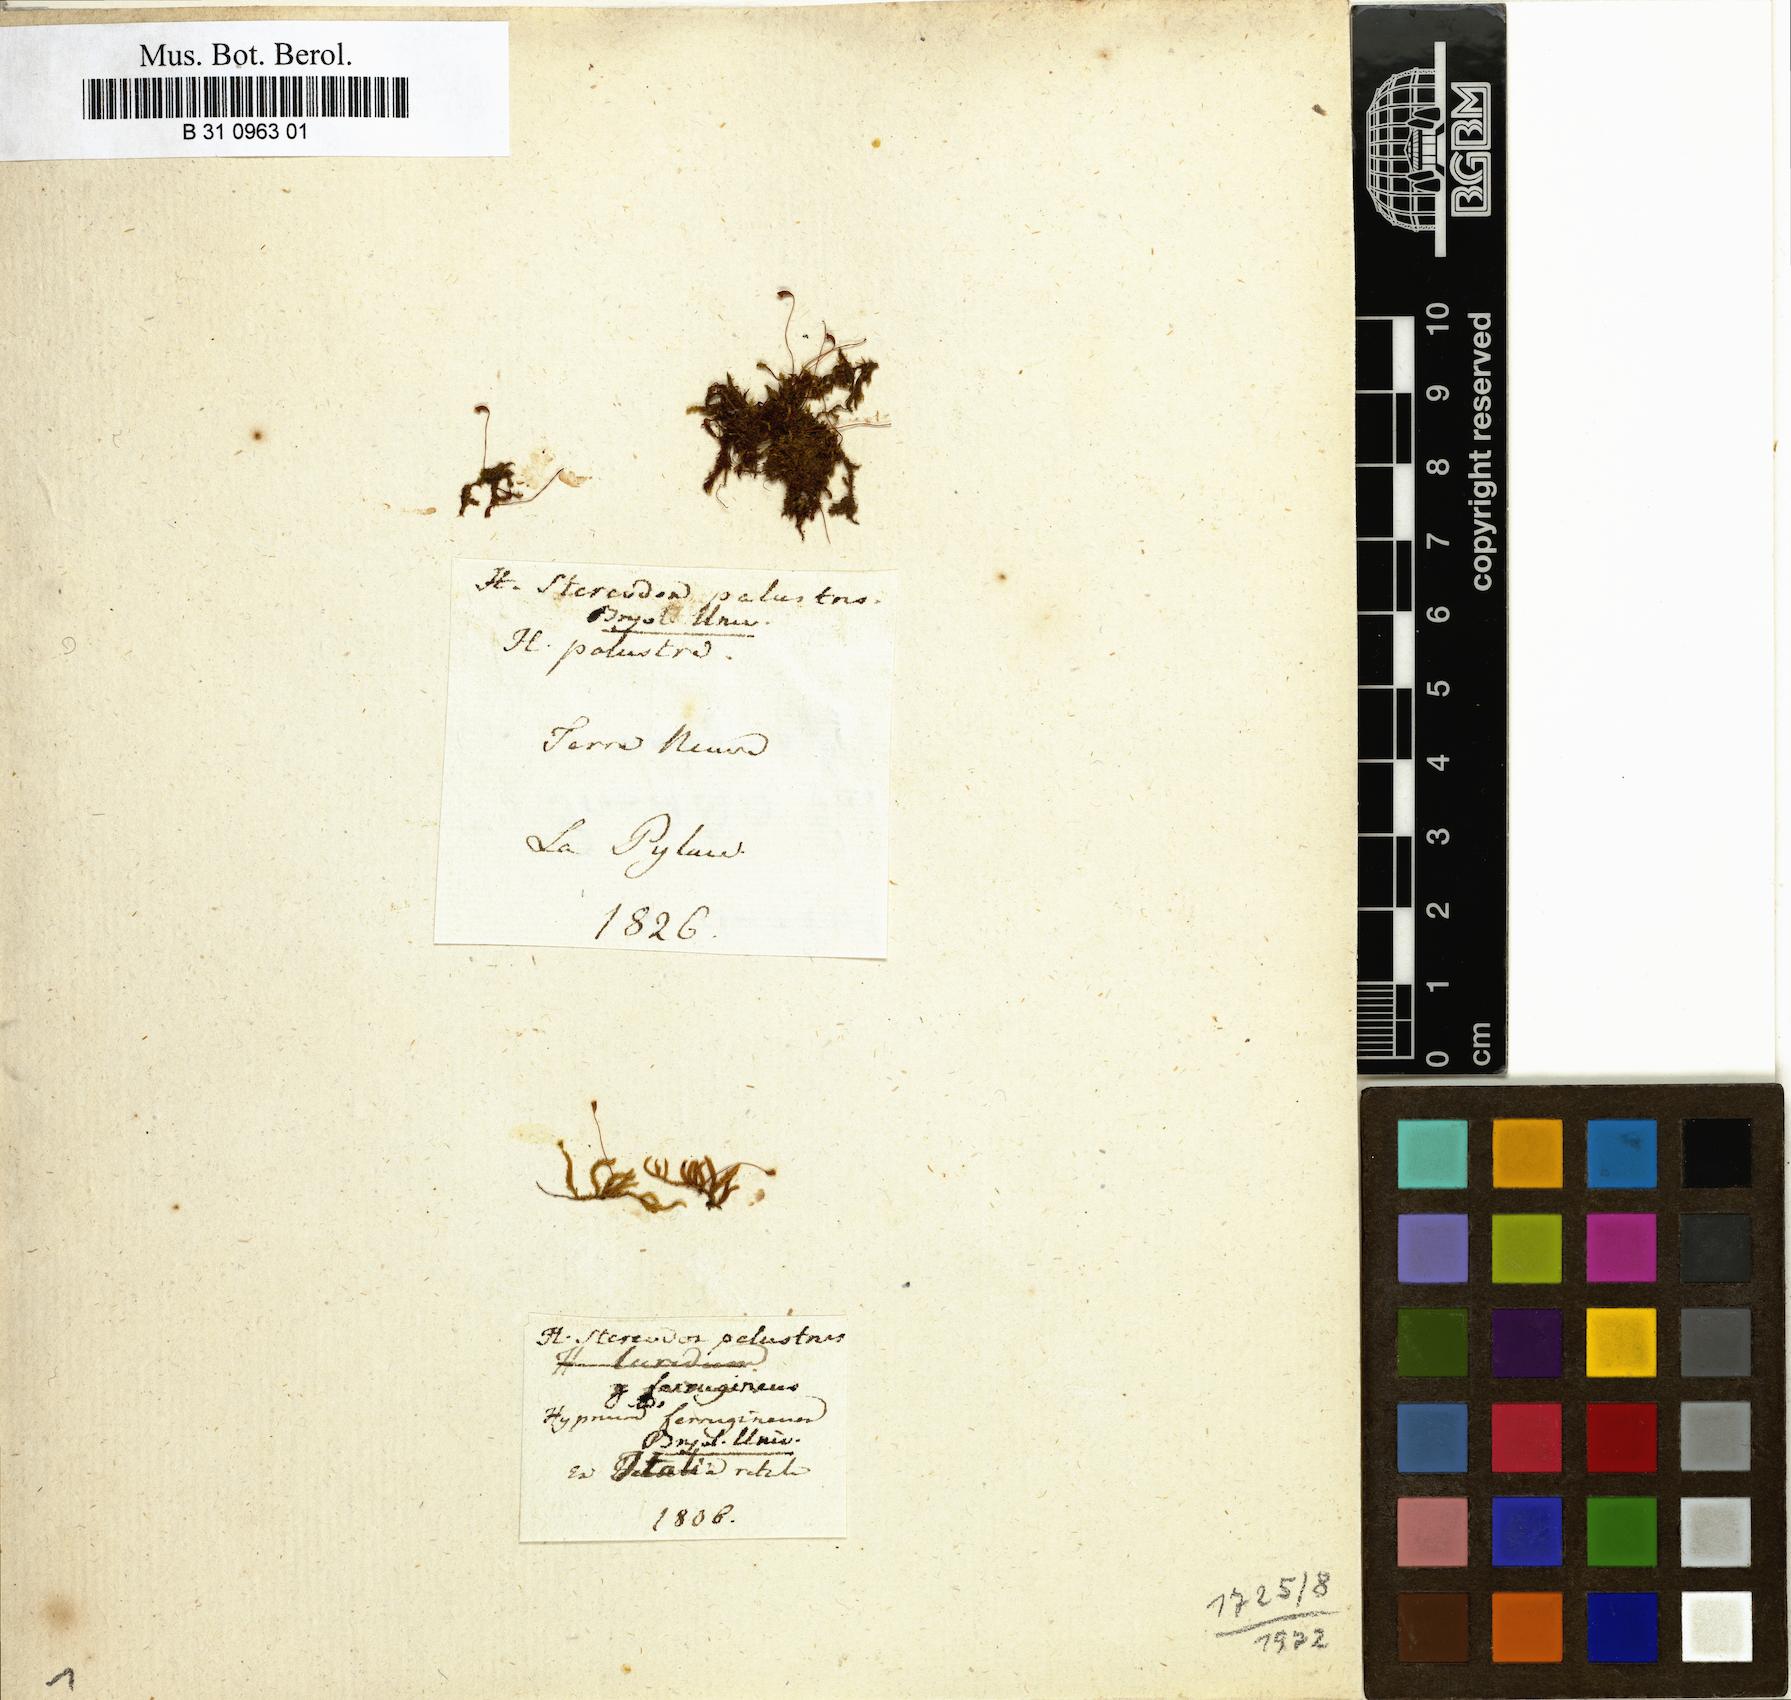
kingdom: Plantae
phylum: Bryophyta
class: Bryopsida
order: Hypnales
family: Amblystegiaceae
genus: Hygrohypnum
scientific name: Hygrohypnum luridum
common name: Drab brook moss
